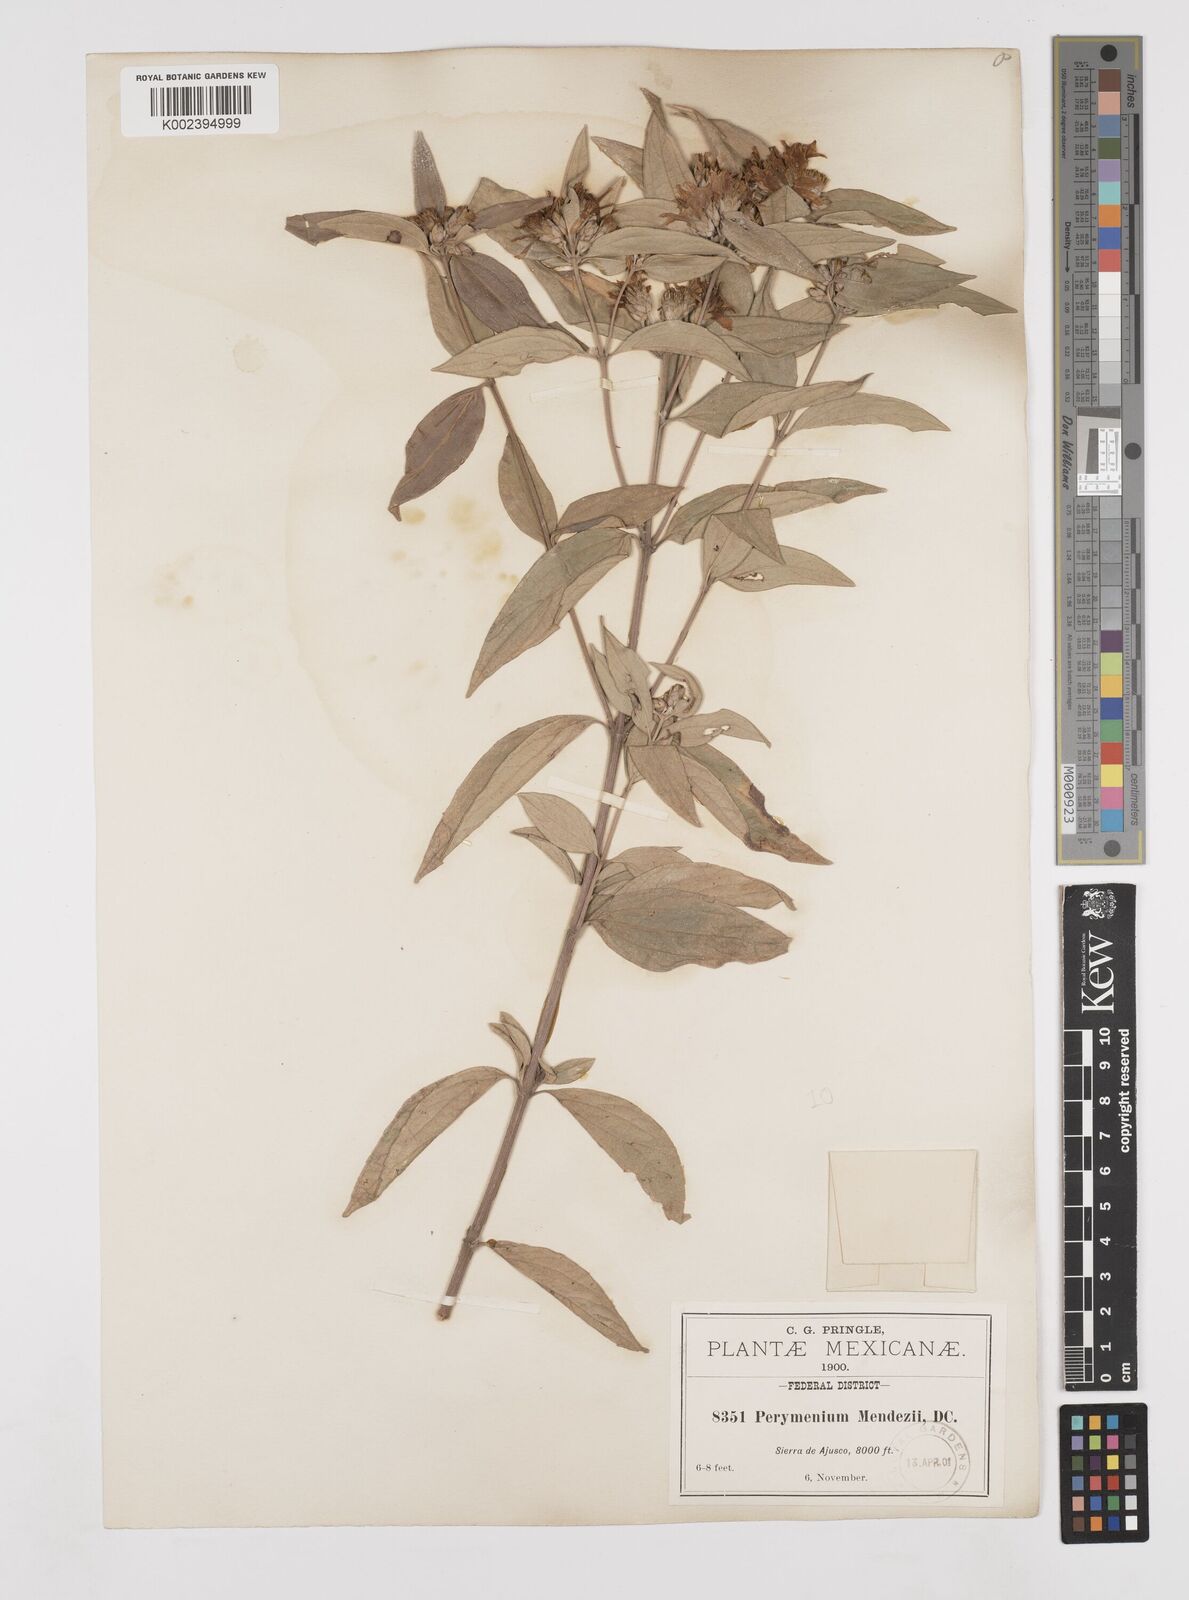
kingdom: Plantae
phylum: Tracheophyta
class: Magnoliopsida
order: Asterales
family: Asteraceae
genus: Perymenium
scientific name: Perymenium berlandieri
